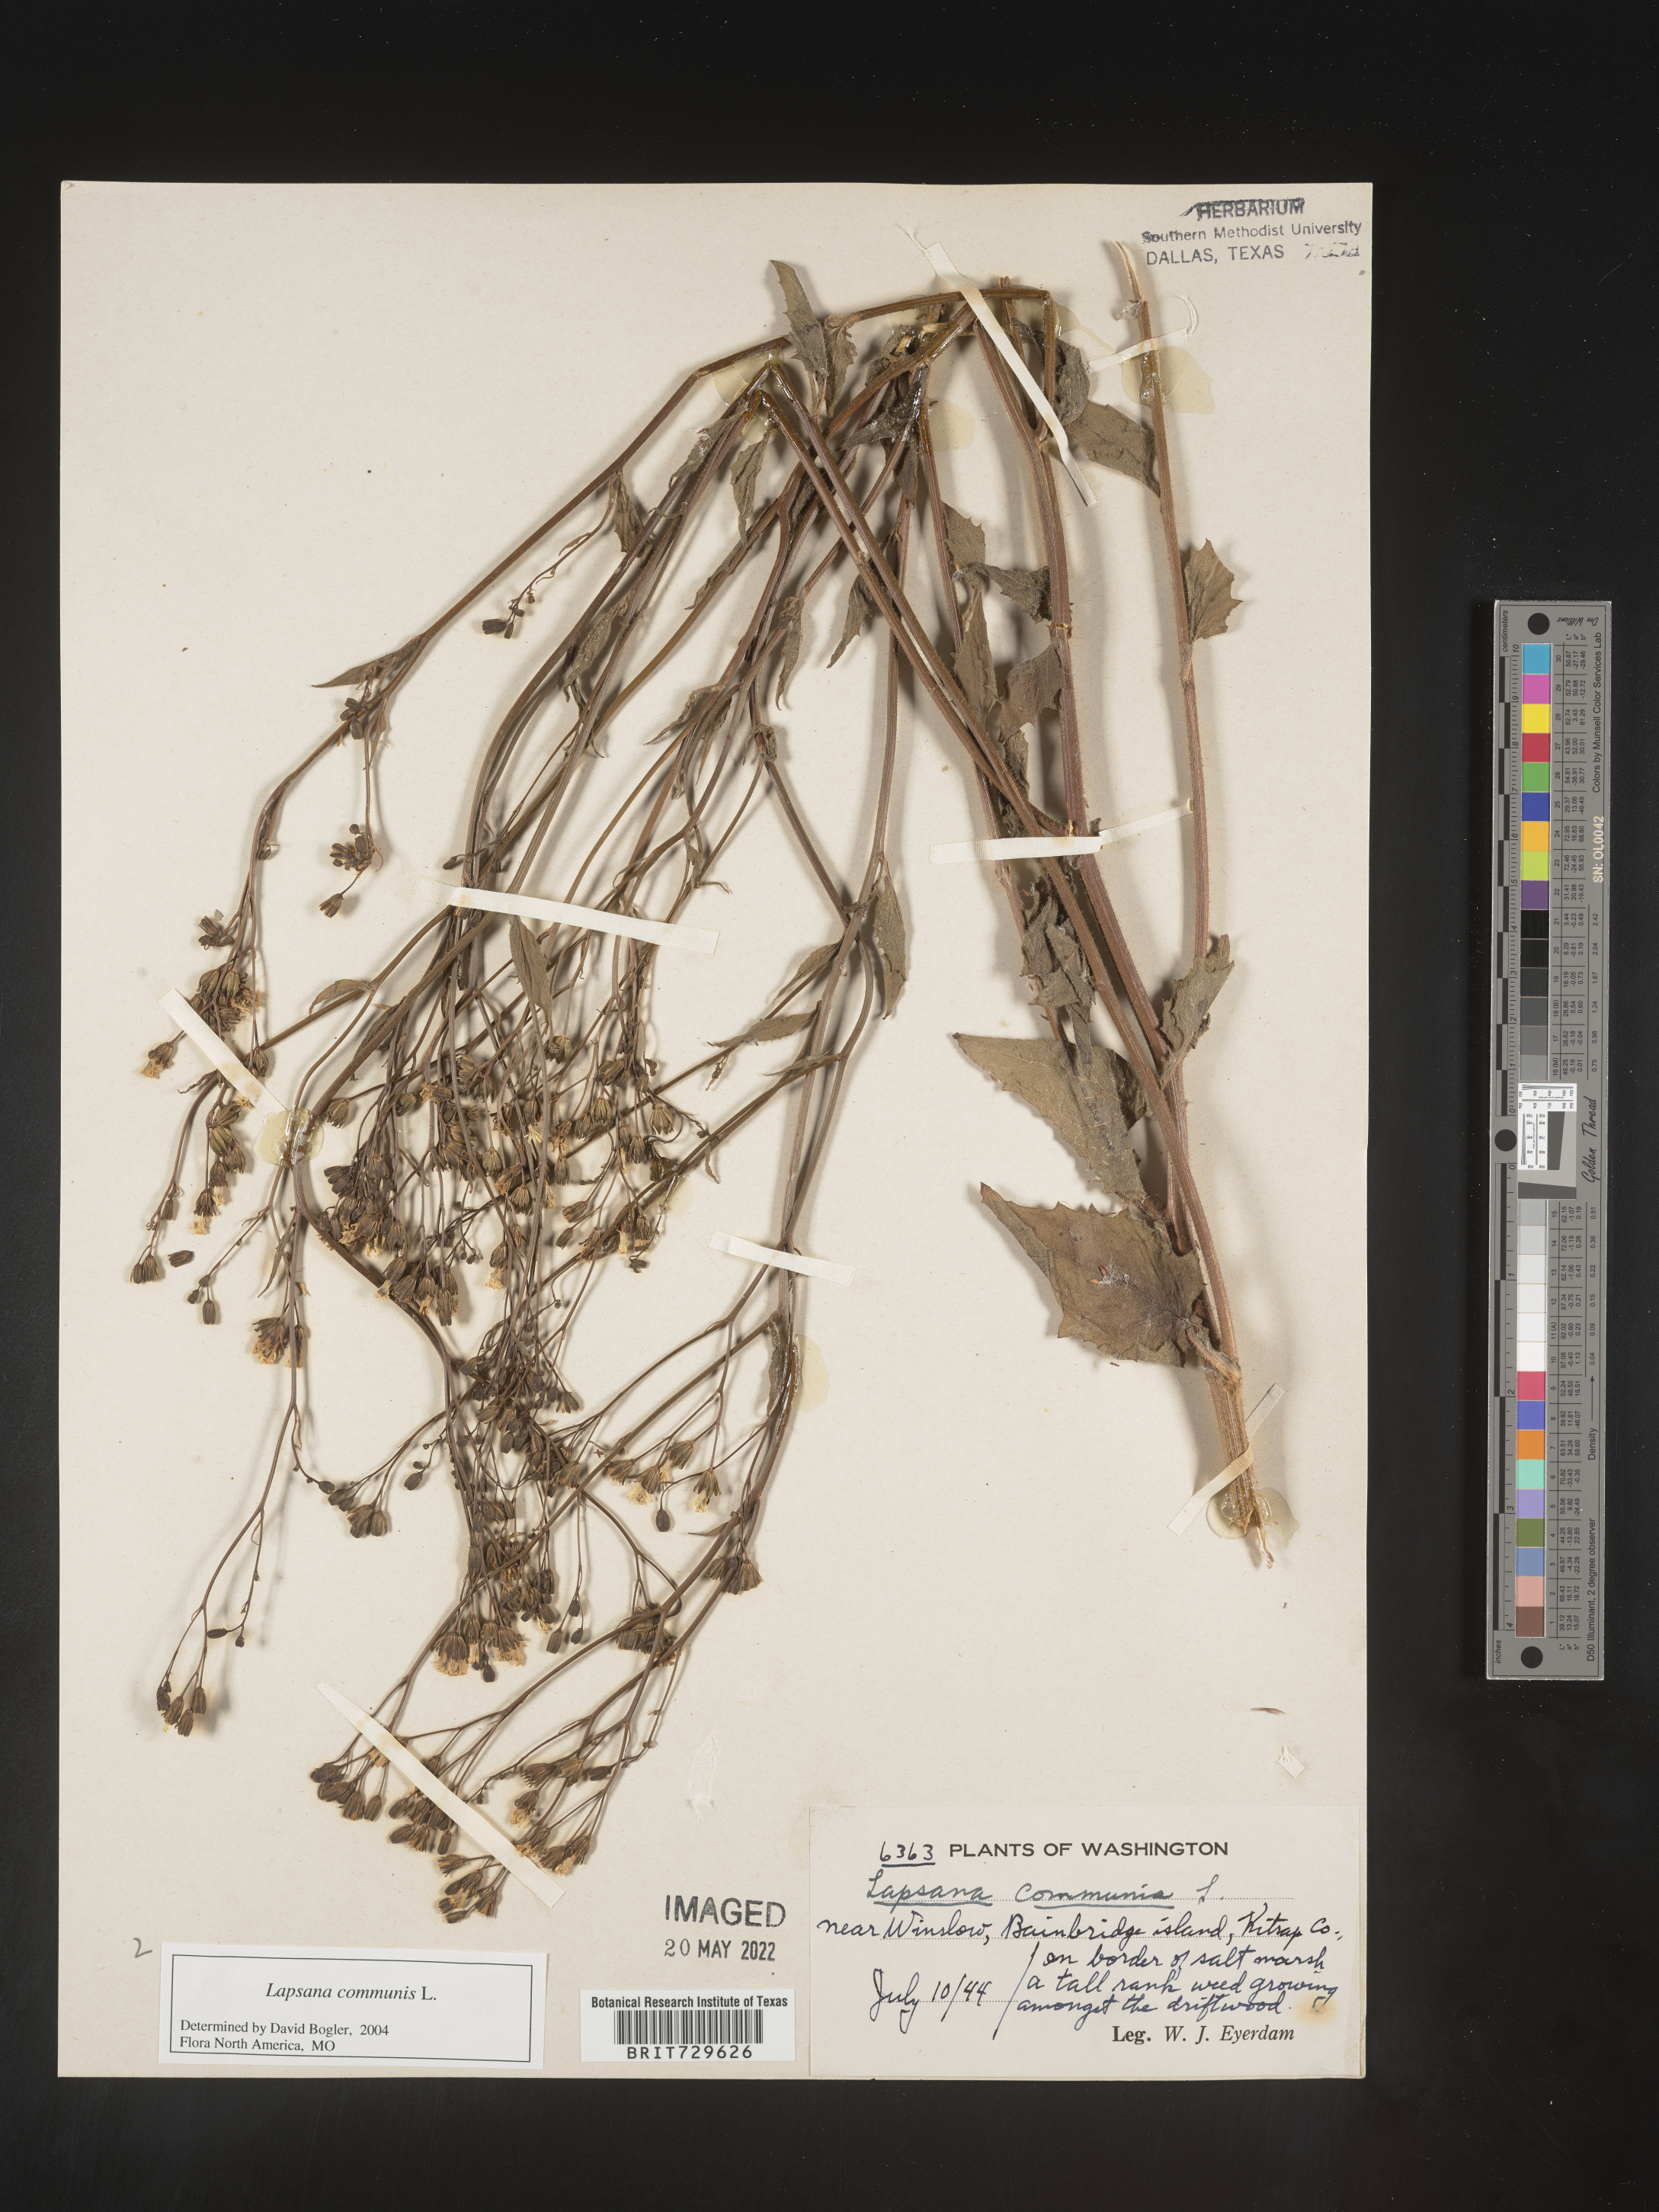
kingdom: Plantae
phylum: Tracheophyta
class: Magnoliopsida
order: Asterales
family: Asteraceae
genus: Lapsana
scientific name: Lapsana
